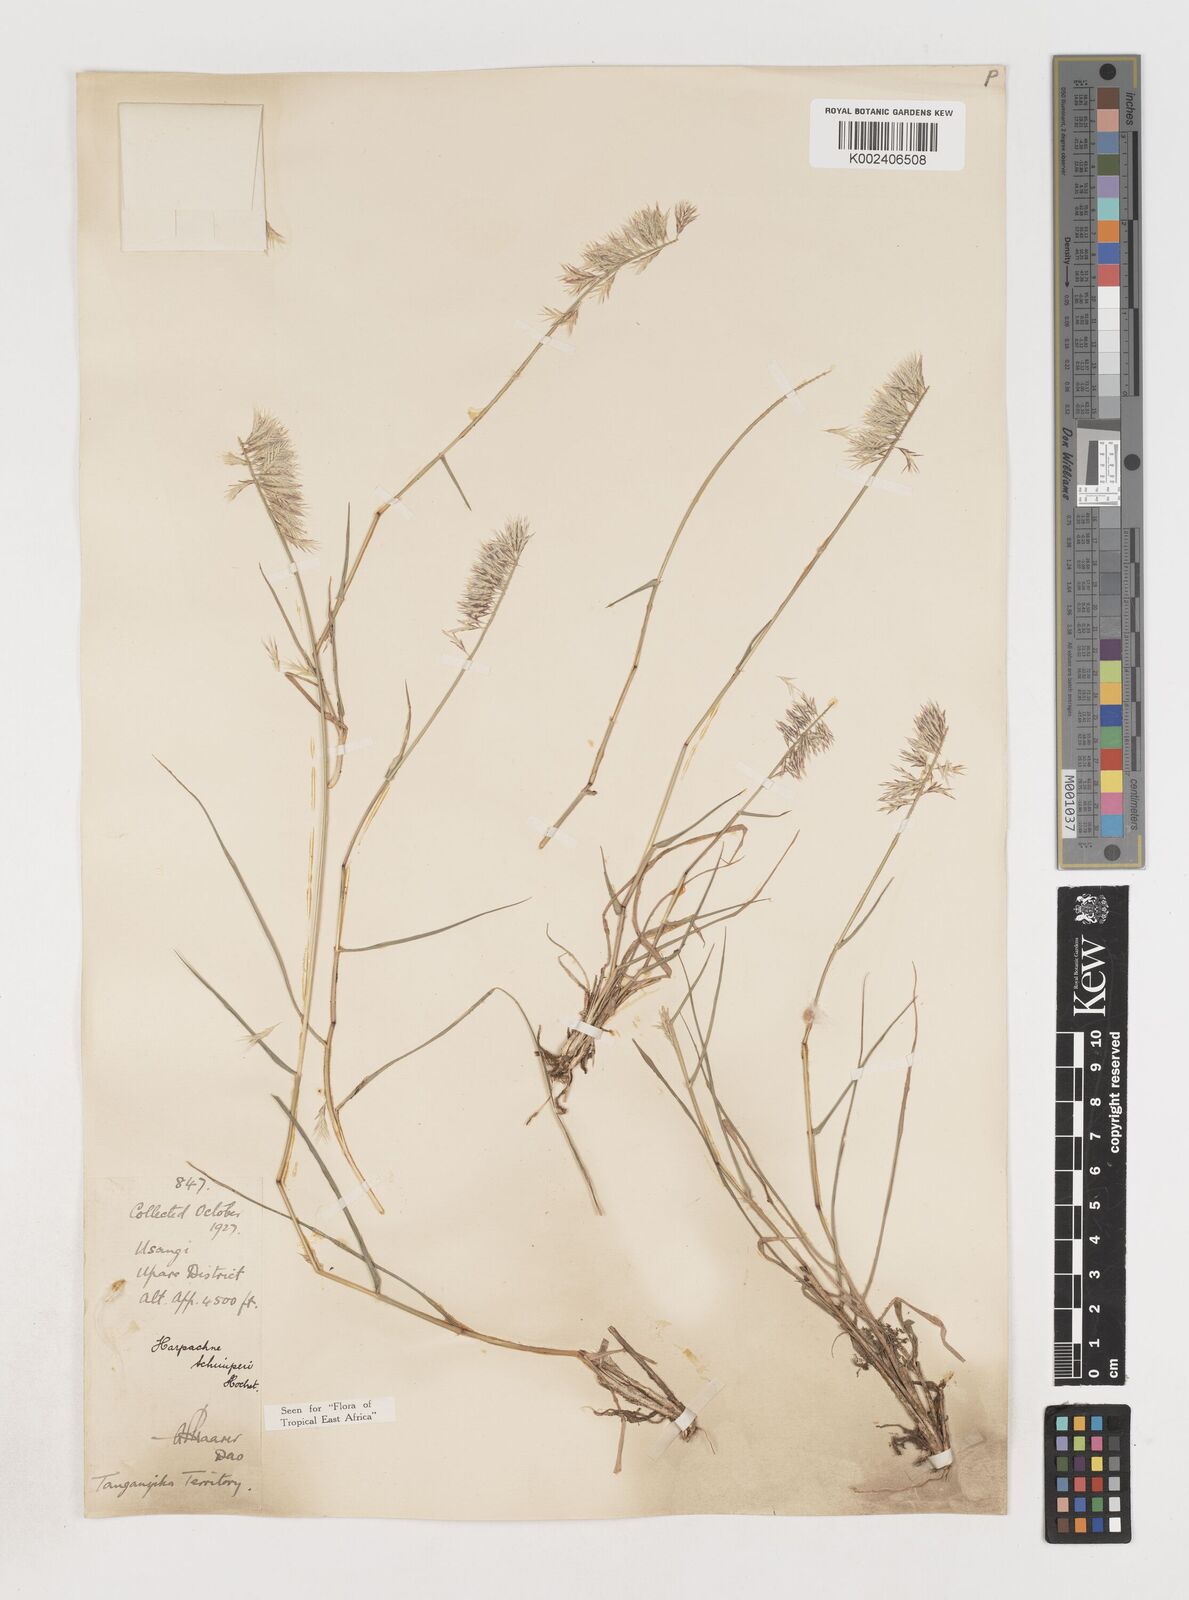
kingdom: Plantae
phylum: Tracheophyta
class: Liliopsida
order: Poales
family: Poaceae
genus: Harpachne
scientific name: Harpachne schimperi
